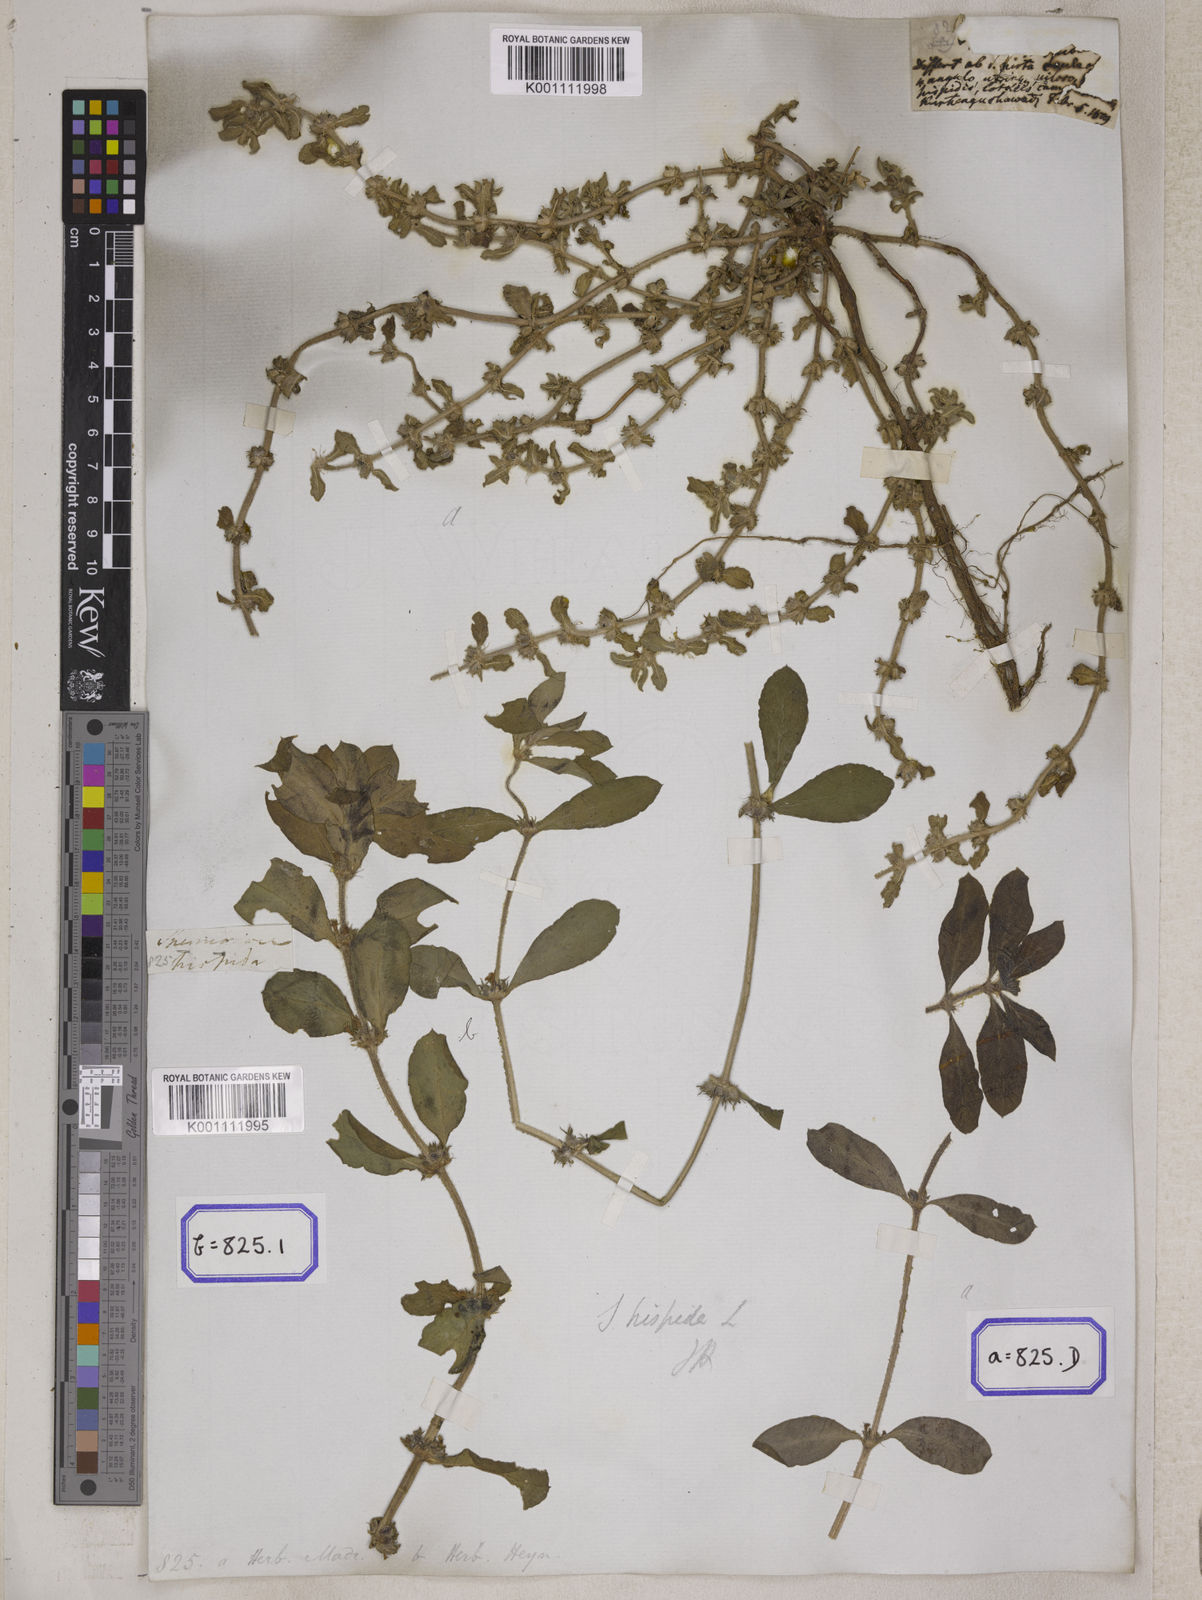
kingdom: Plantae
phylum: Tracheophyta
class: Magnoliopsida
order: Gentianales
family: Rubiaceae
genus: Spermacoce
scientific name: Spermacoce hispida
